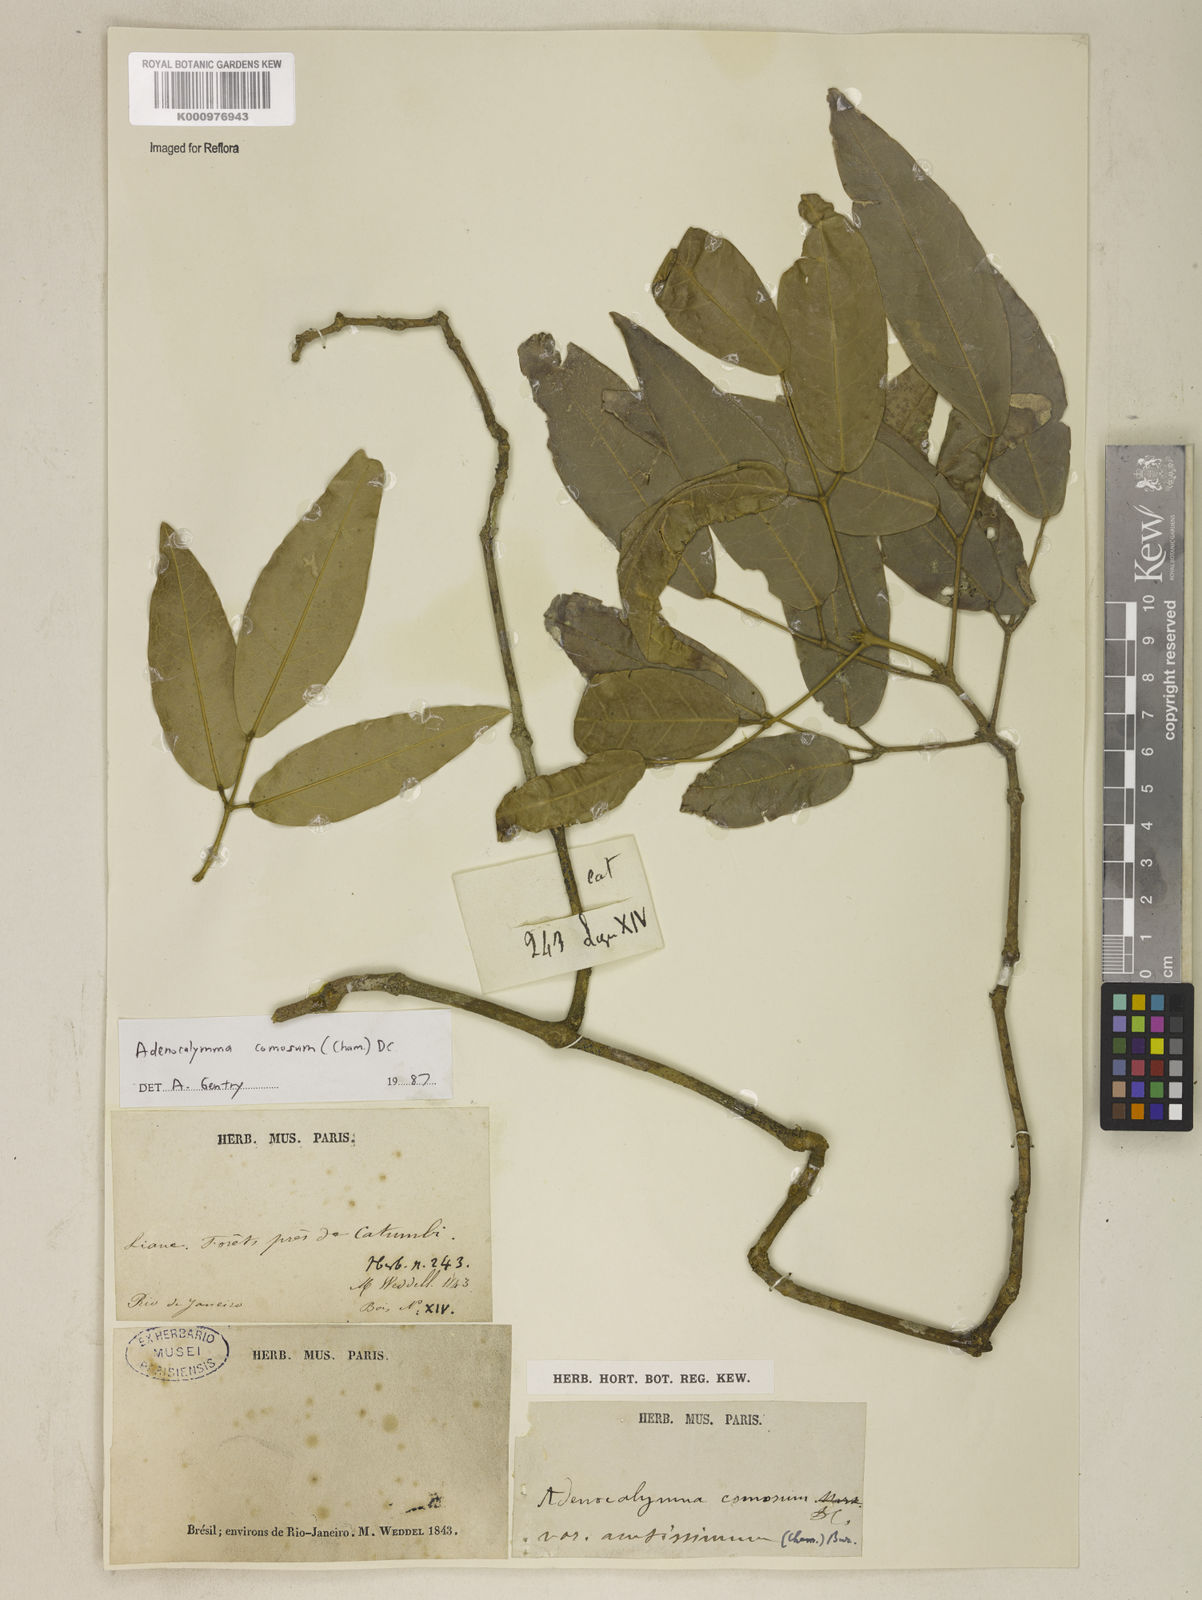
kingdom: Plantae
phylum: Tracheophyta
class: Magnoliopsida
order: Lamiales
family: Bignoniaceae
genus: Adenocalymma
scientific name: Adenocalymma acutissimum
